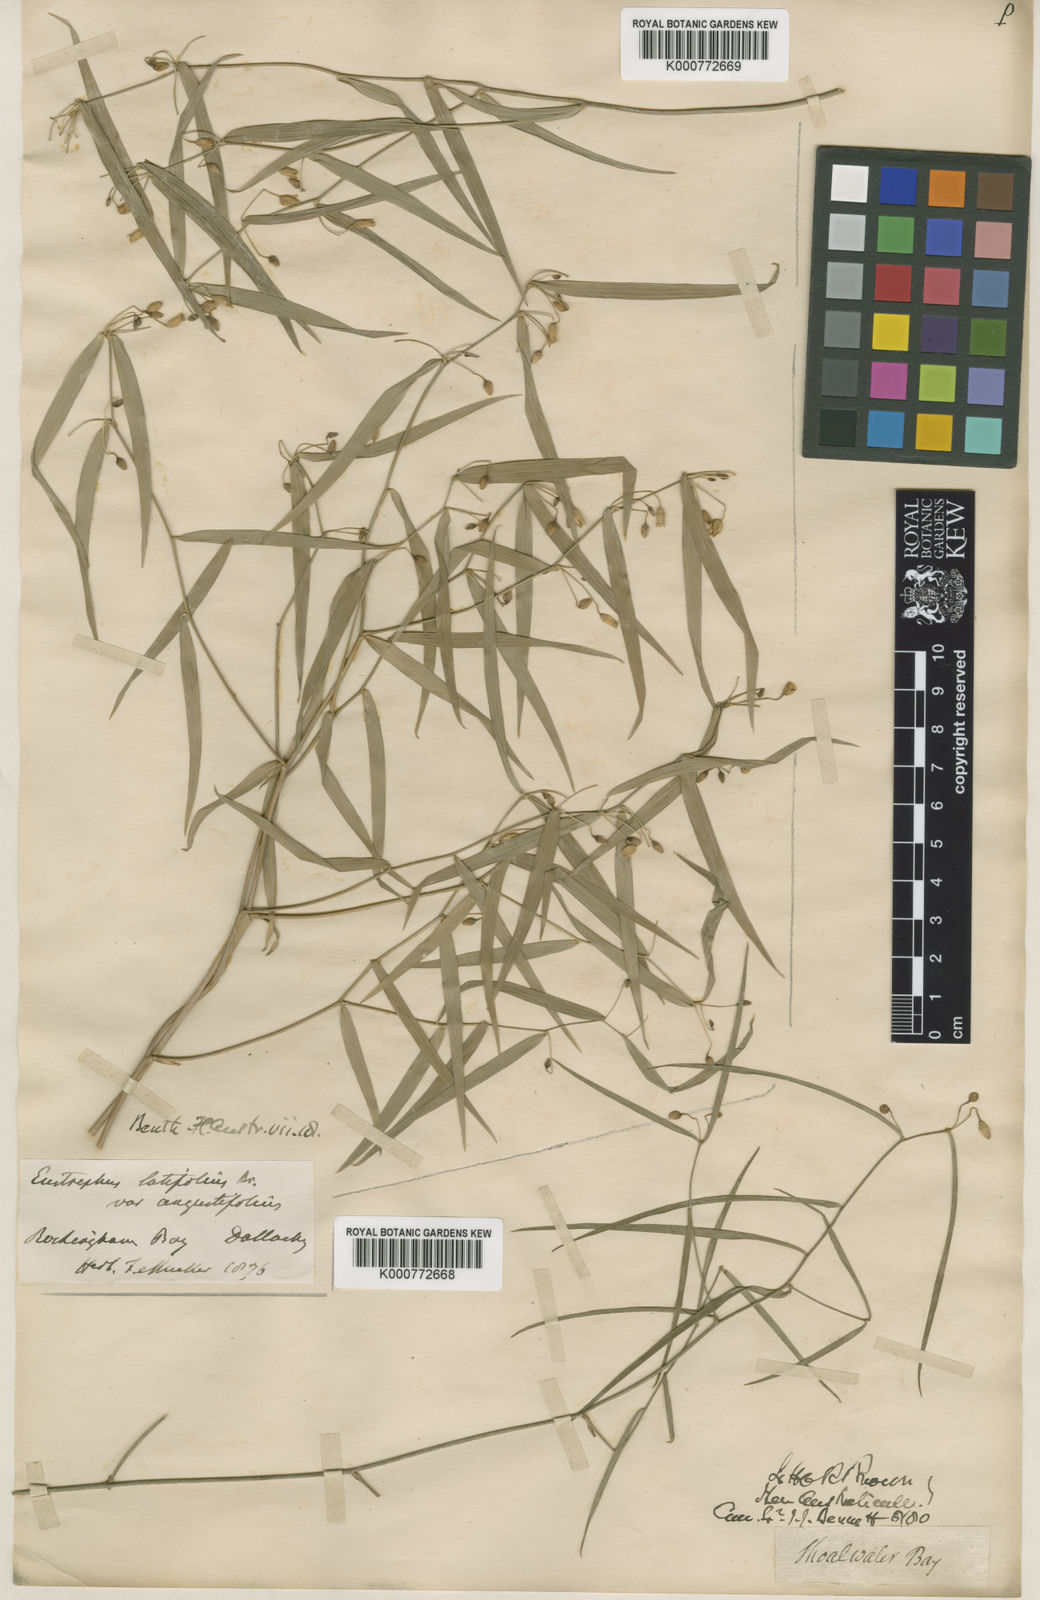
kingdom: Plantae
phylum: Tracheophyta
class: Liliopsida
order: Asparagales
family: Asparagaceae
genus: Eustrephus
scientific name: Eustrephus latifolius
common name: Orangevine
